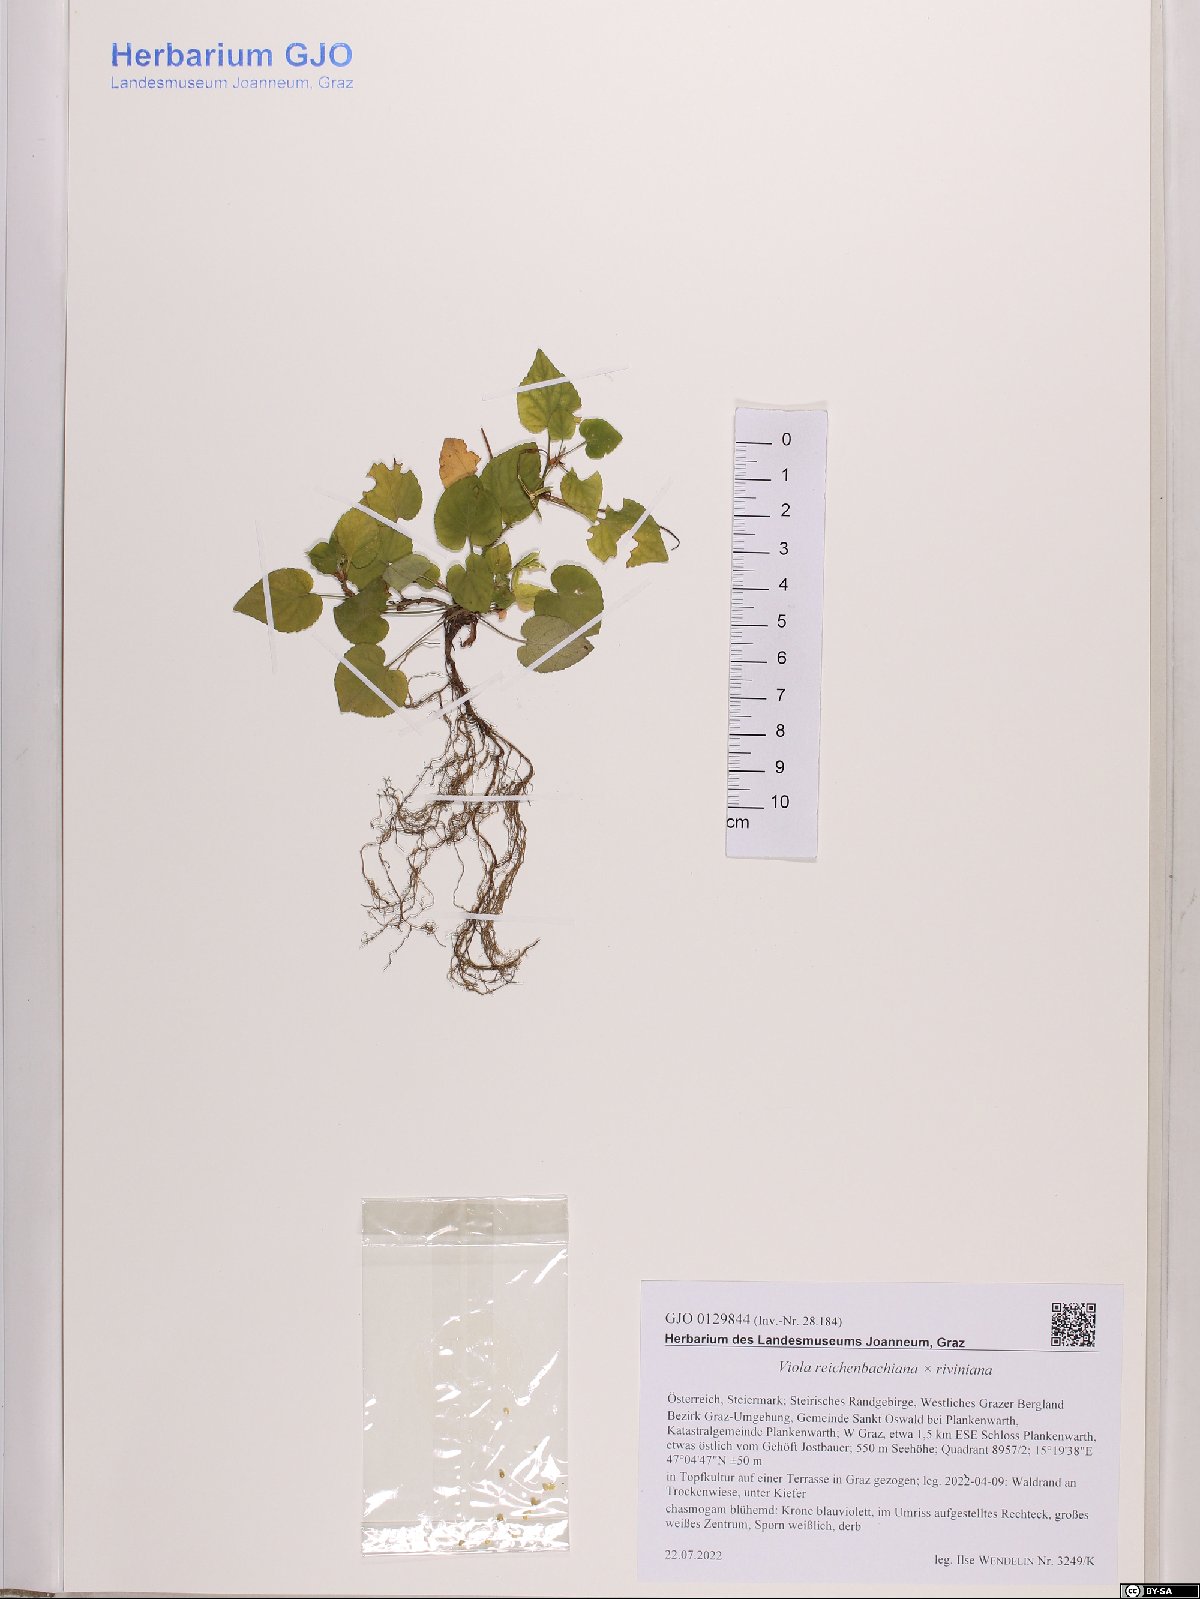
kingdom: Plantae
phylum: Tracheophyta
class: Magnoliopsida
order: Malpighiales
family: Violaceae
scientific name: Violaceae
